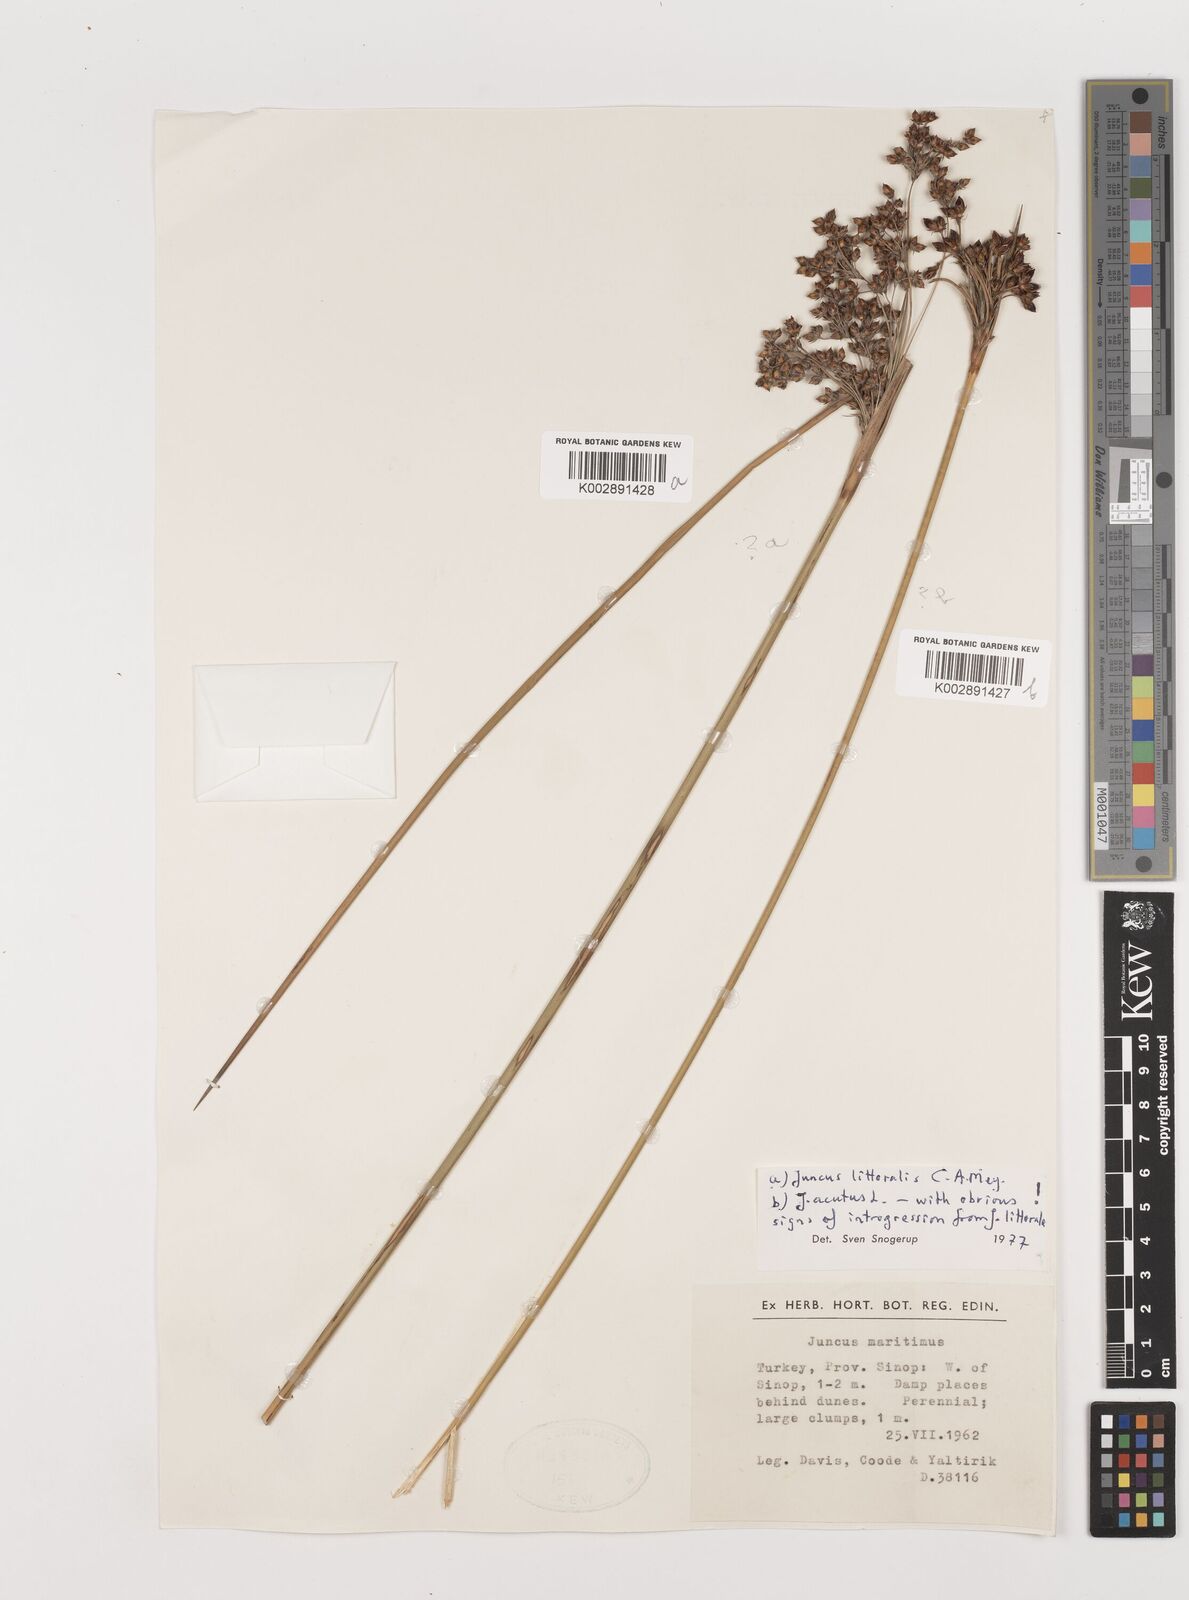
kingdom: Plantae
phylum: Tracheophyta
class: Liliopsida
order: Poales
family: Juncaceae
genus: Juncus
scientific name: Juncus littoralis
